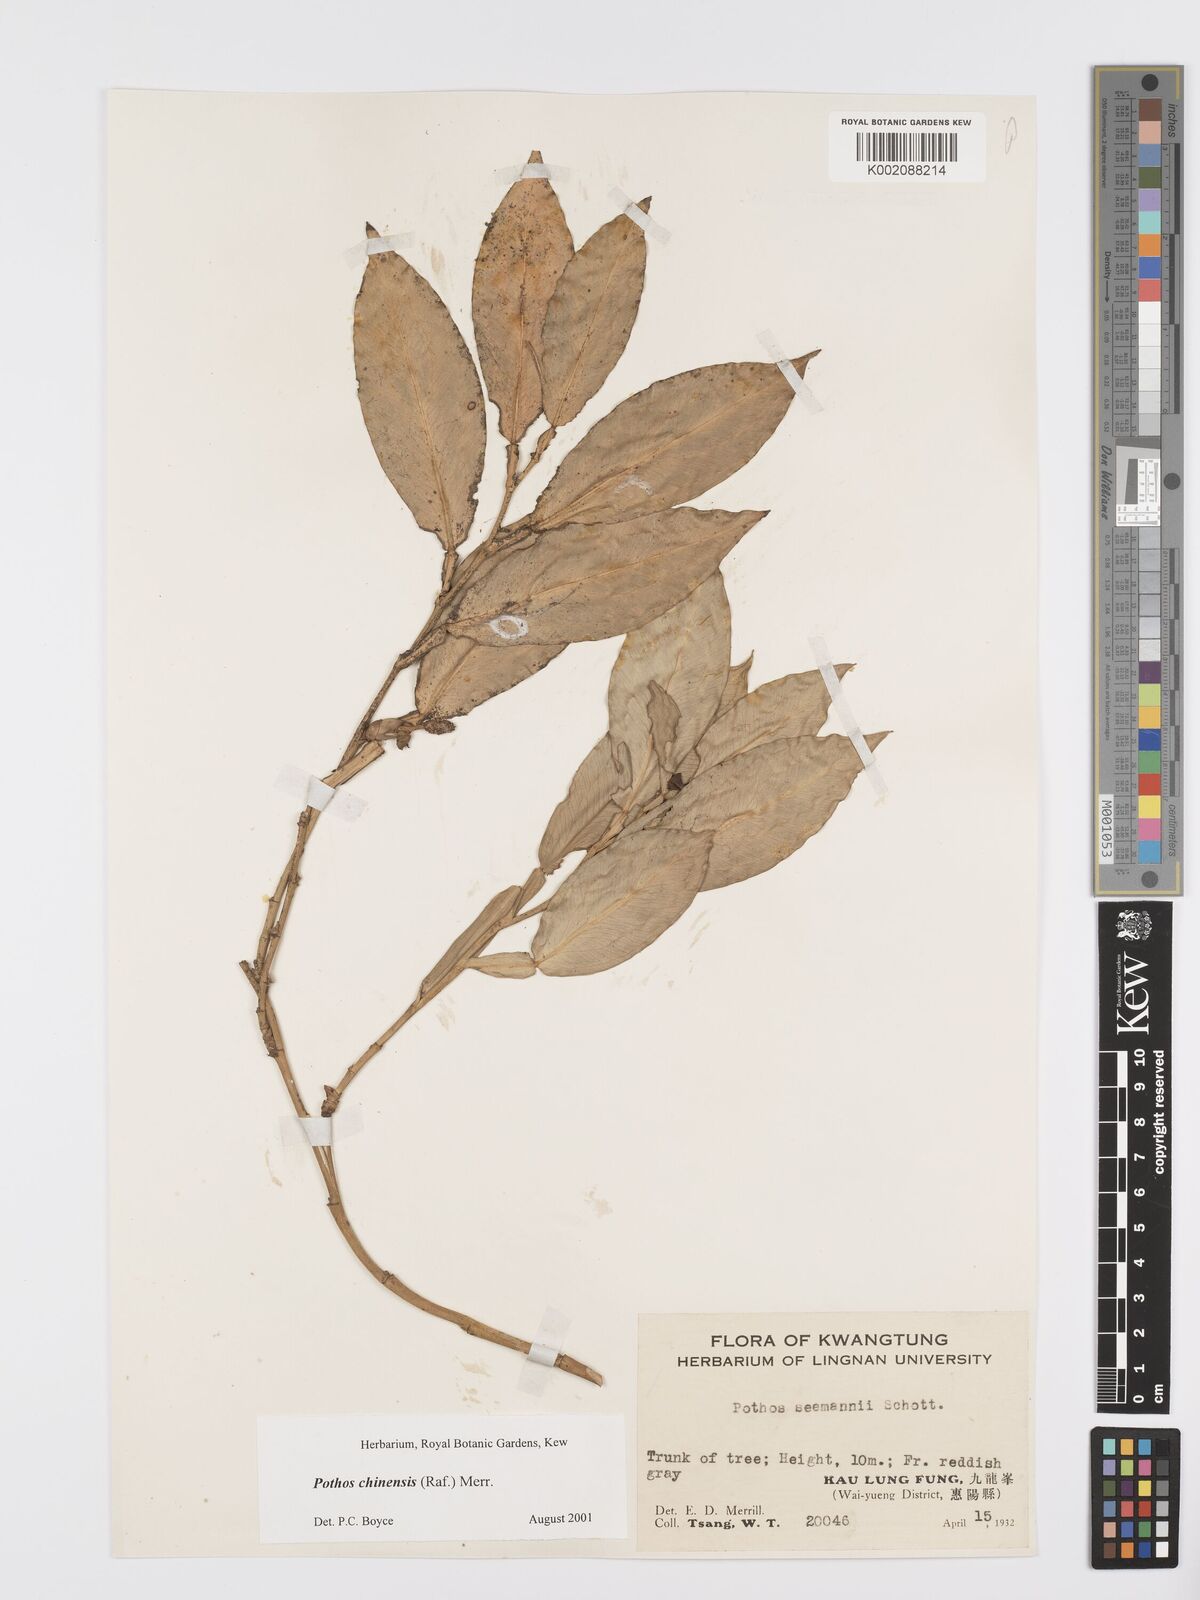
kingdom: Plantae
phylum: Tracheophyta
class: Liliopsida
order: Alismatales
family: Araceae
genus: Pothos
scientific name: Pothos chinensis
